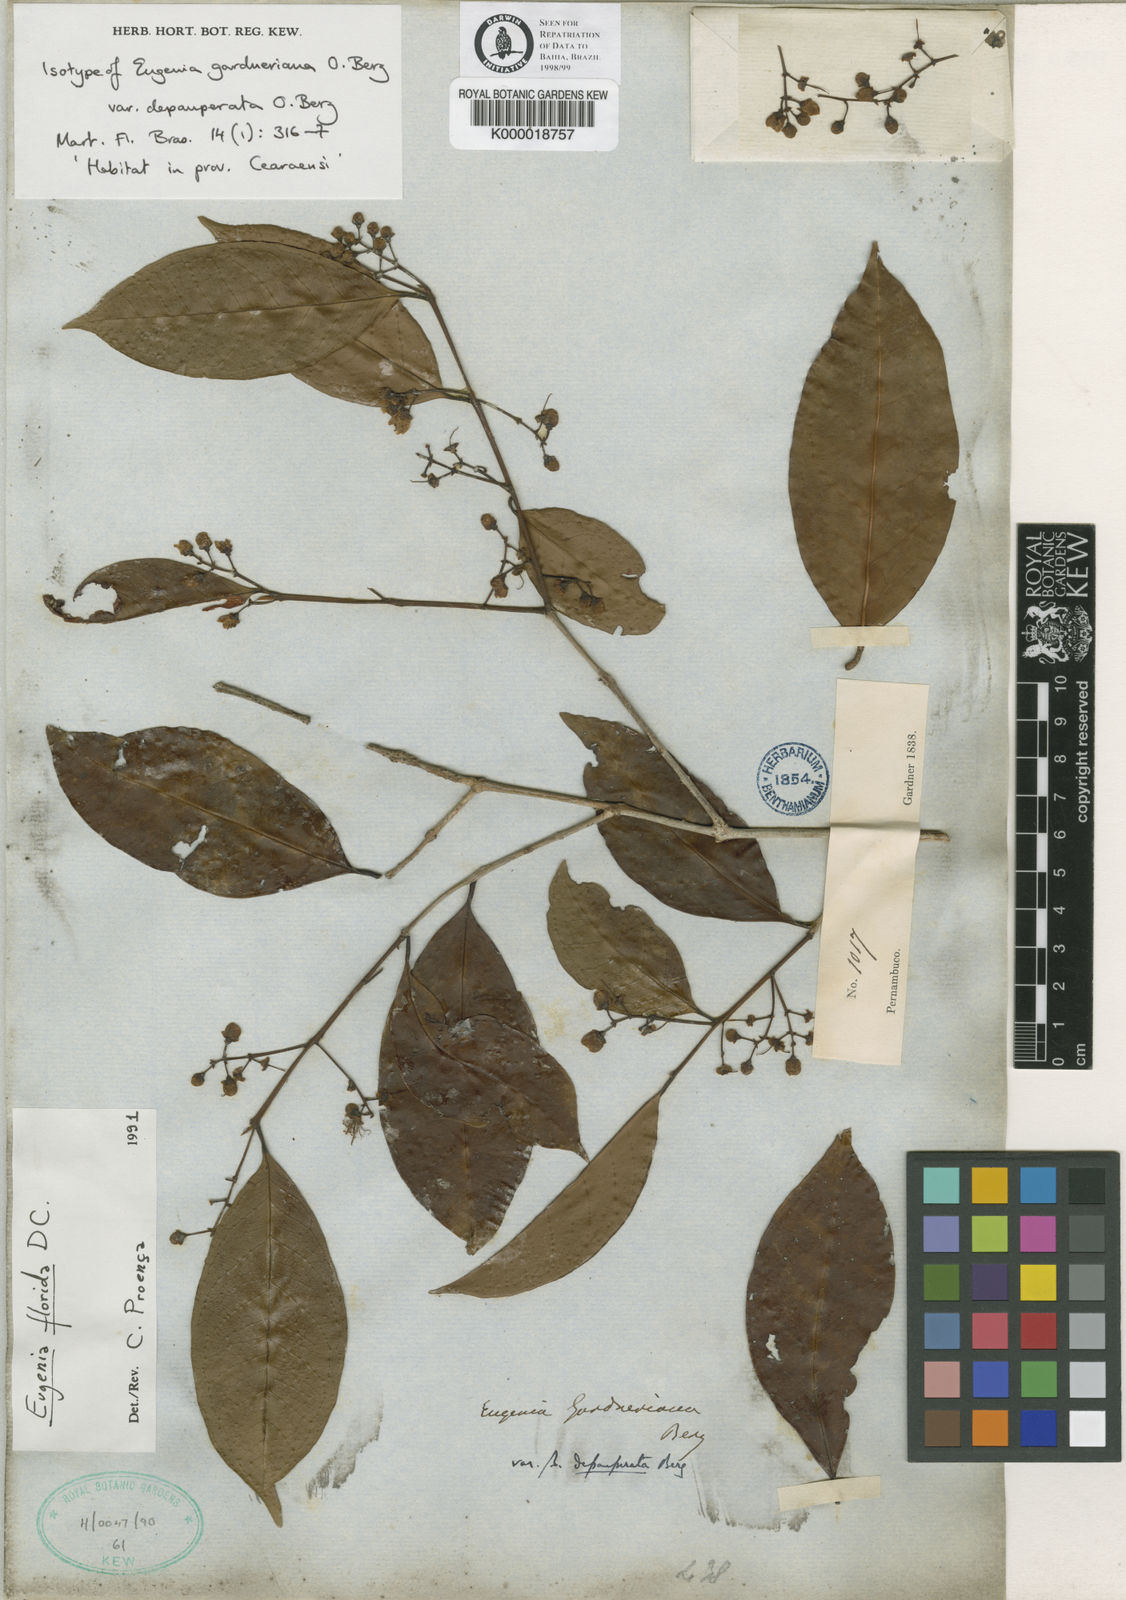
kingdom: Plantae
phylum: Tracheophyta
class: Magnoliopsida
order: Myrtales
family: Myrtaceae
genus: Eugenia
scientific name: Eugenia florida
